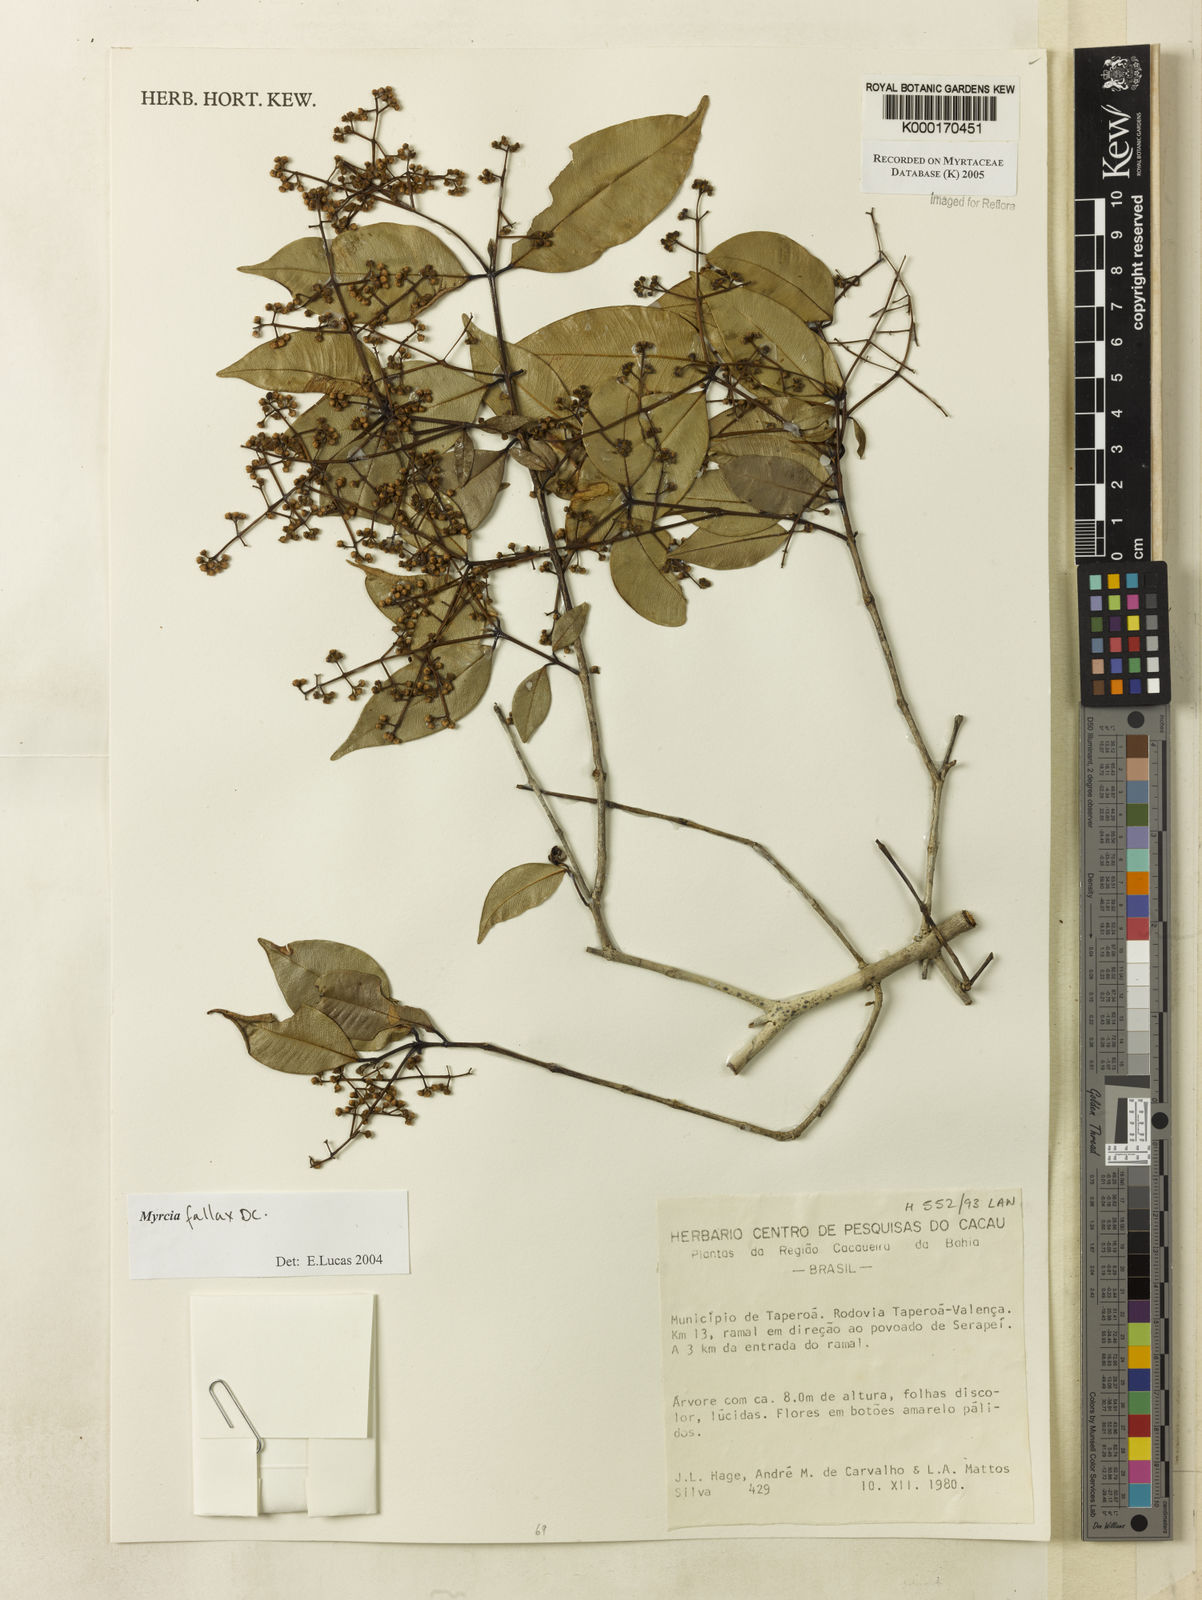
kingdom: Plantae
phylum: Tracheophyta
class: Magnoliopsida
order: Myrtales
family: Myrtaceae
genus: Myrcia
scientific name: Myrcia
